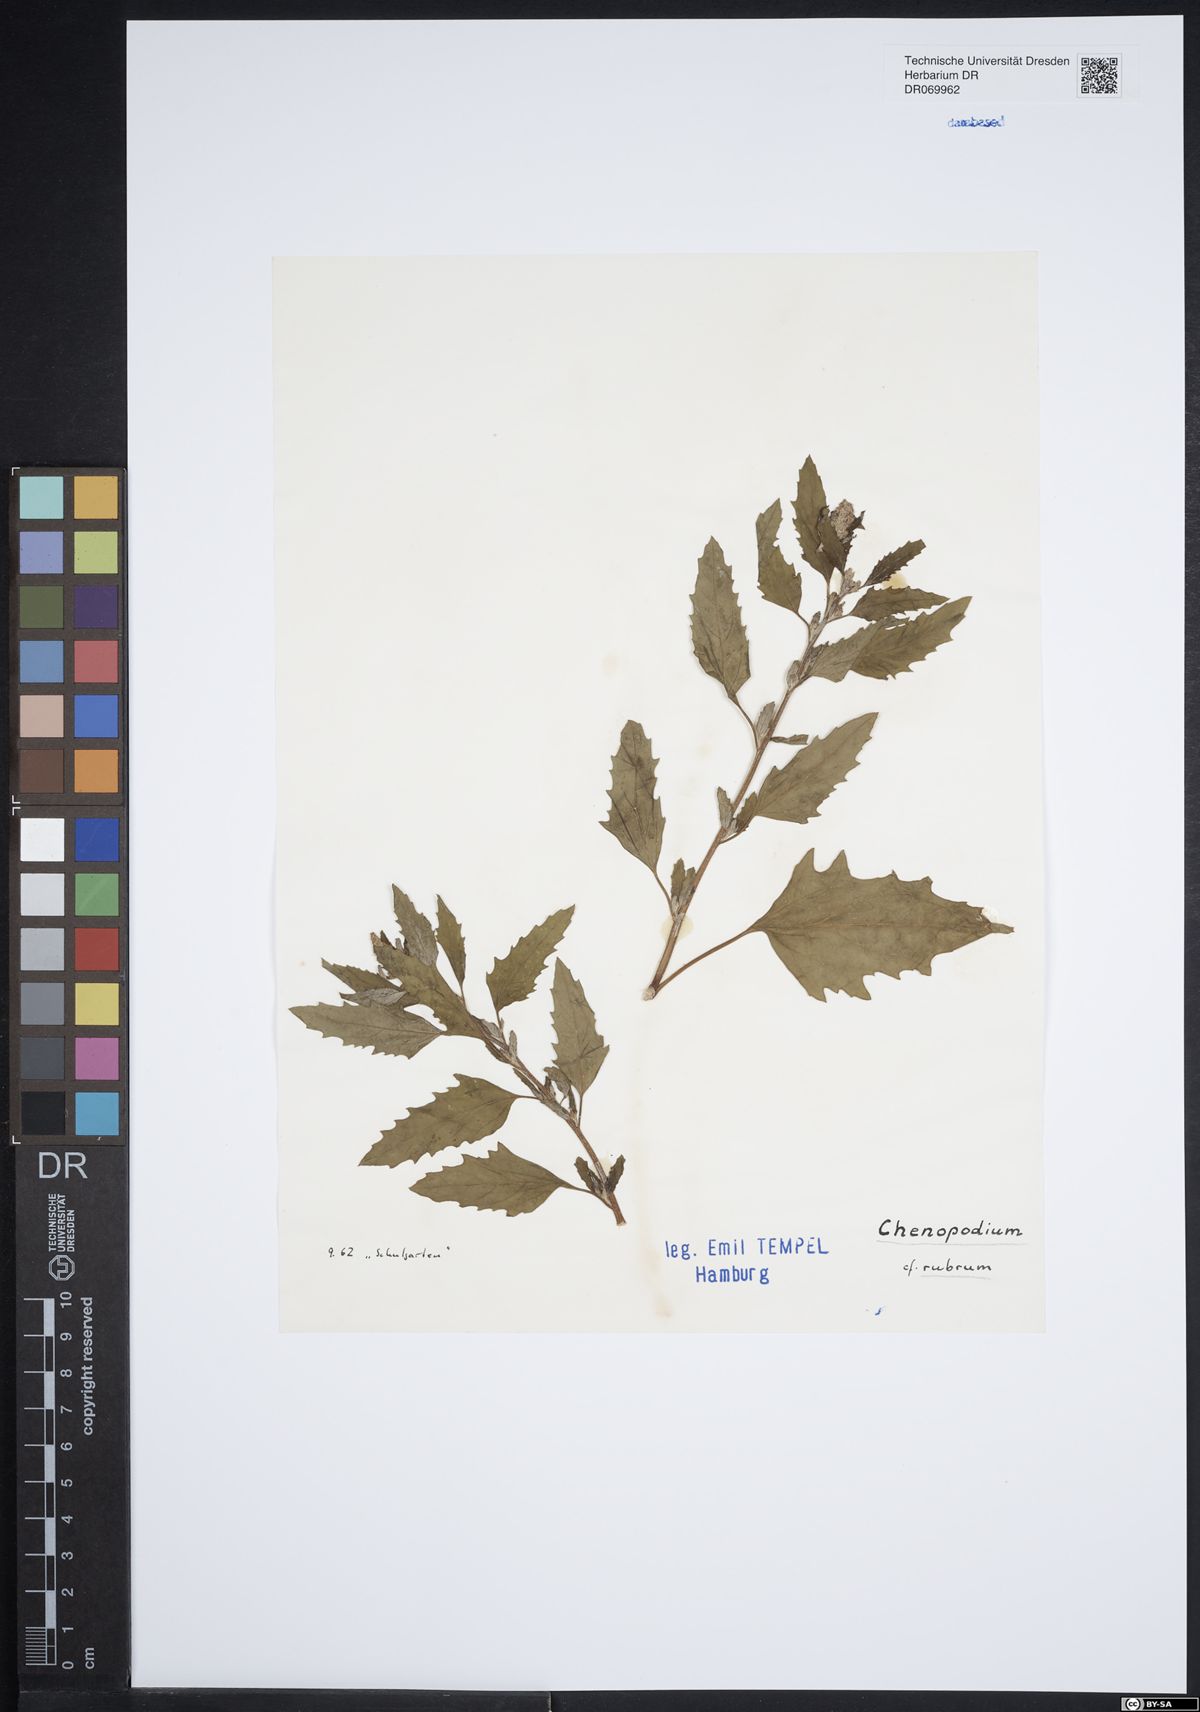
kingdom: Plantae
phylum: Tracheophyta
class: Magnoliopsida
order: Caryophyllales
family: Amaranthaceae
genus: Oxybasis
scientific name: Oxybasis rubra
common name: Red goosefoot
